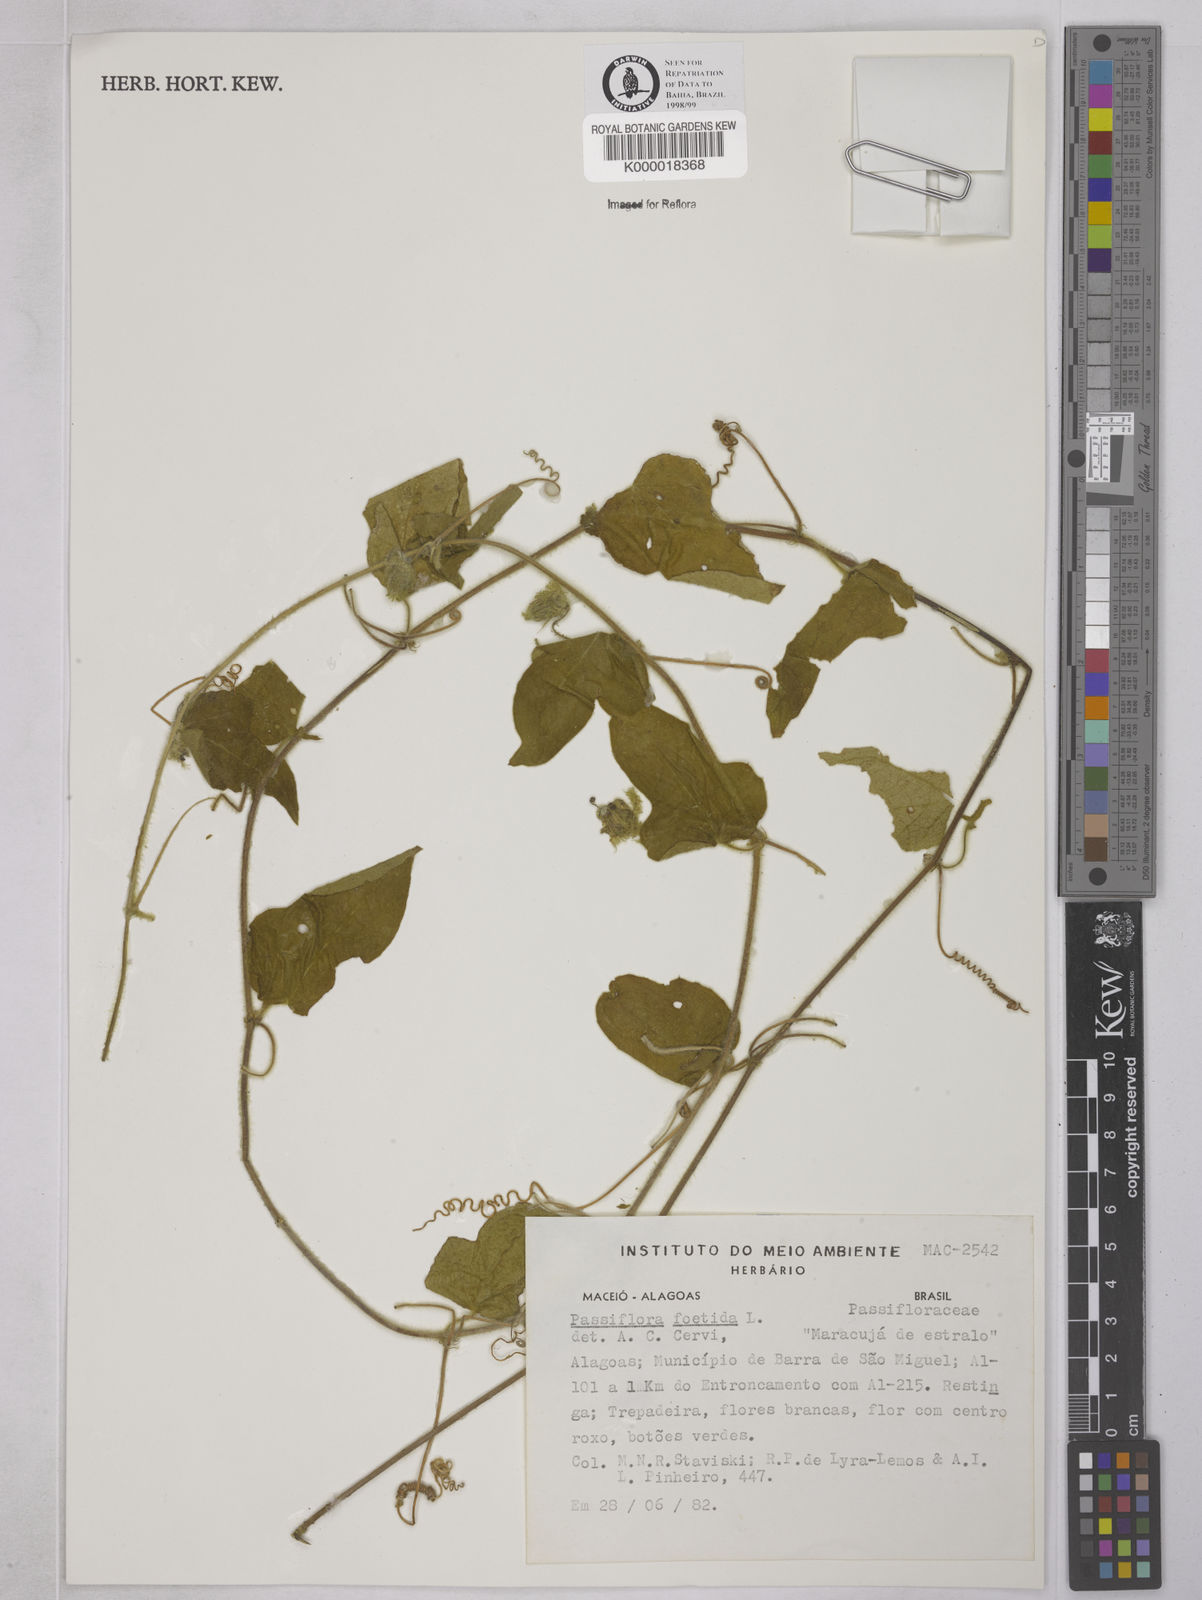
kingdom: Plantae
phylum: Tracheophyta
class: Magnoliopsida
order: Malpighiales
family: Passifloraceae
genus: Passiflora
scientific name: Passiflora foetida
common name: Fetid passionflower
